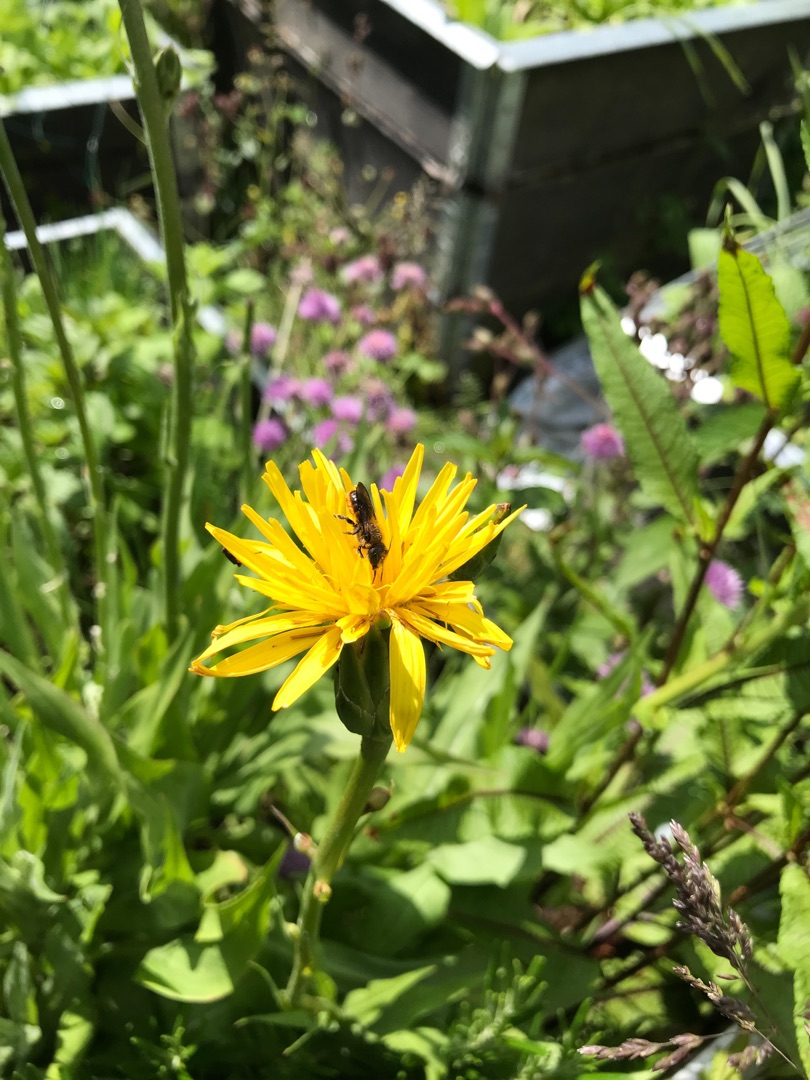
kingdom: Plantae
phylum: Tracheophyta
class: Magnoliopsida
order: Asterales
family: Asteraceae
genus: Centaurea
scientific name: Centaurea montana
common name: Bjerg-knopurt
